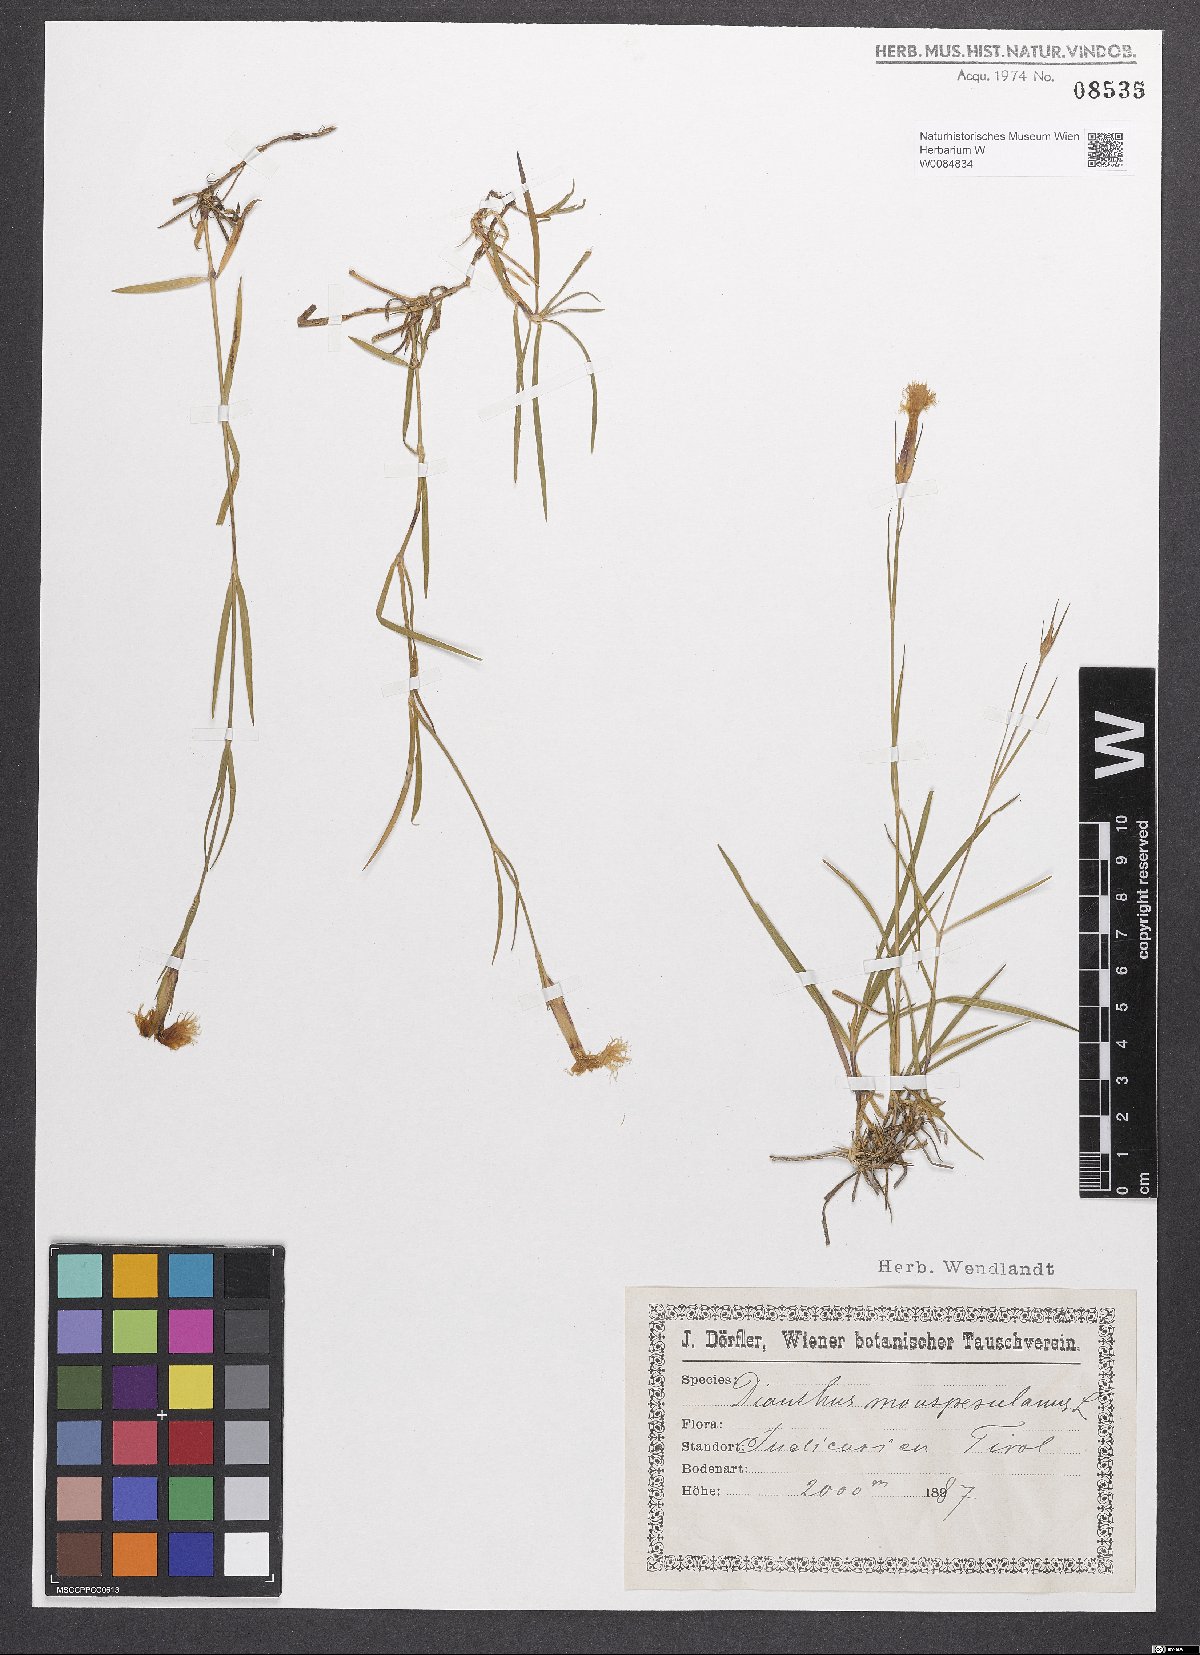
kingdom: Plantae
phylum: Tracheophyta
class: Magnoliopsida
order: Caryophyllales
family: Caryophyllaceae
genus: Dianthus
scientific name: Dianthus hyssopifolius
